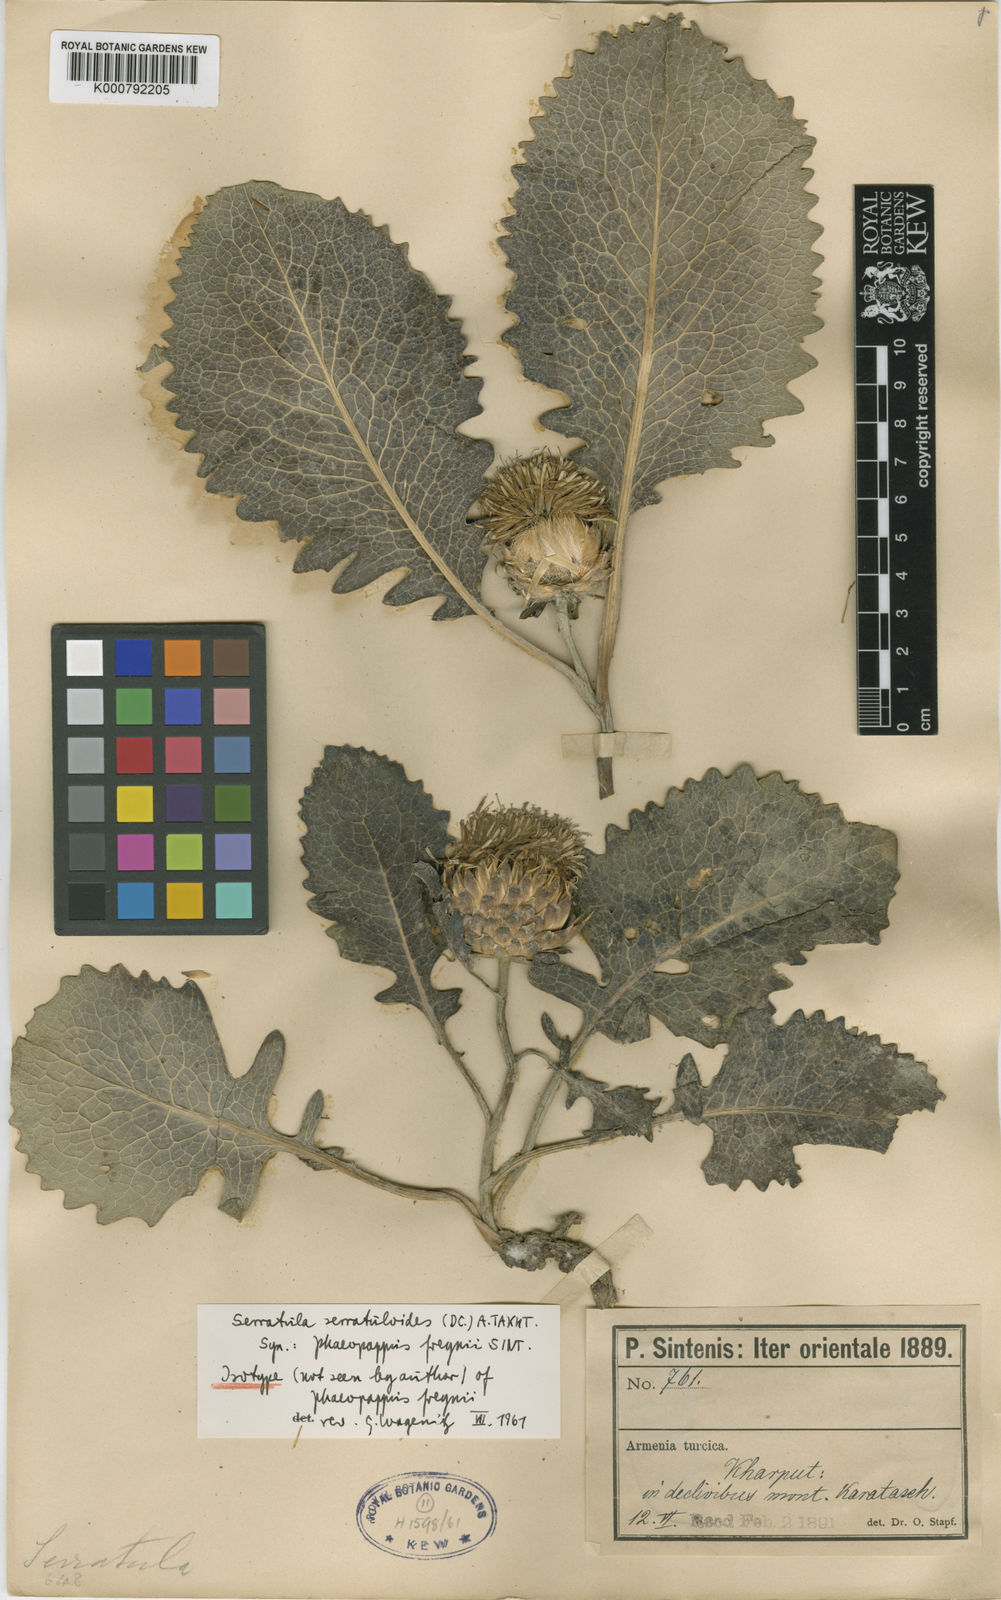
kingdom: Plantae
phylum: Tracheophyta
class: Magnoliopsida
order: Asterales
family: Asteraceae
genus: Klasea
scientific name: Klasea serratuloides
